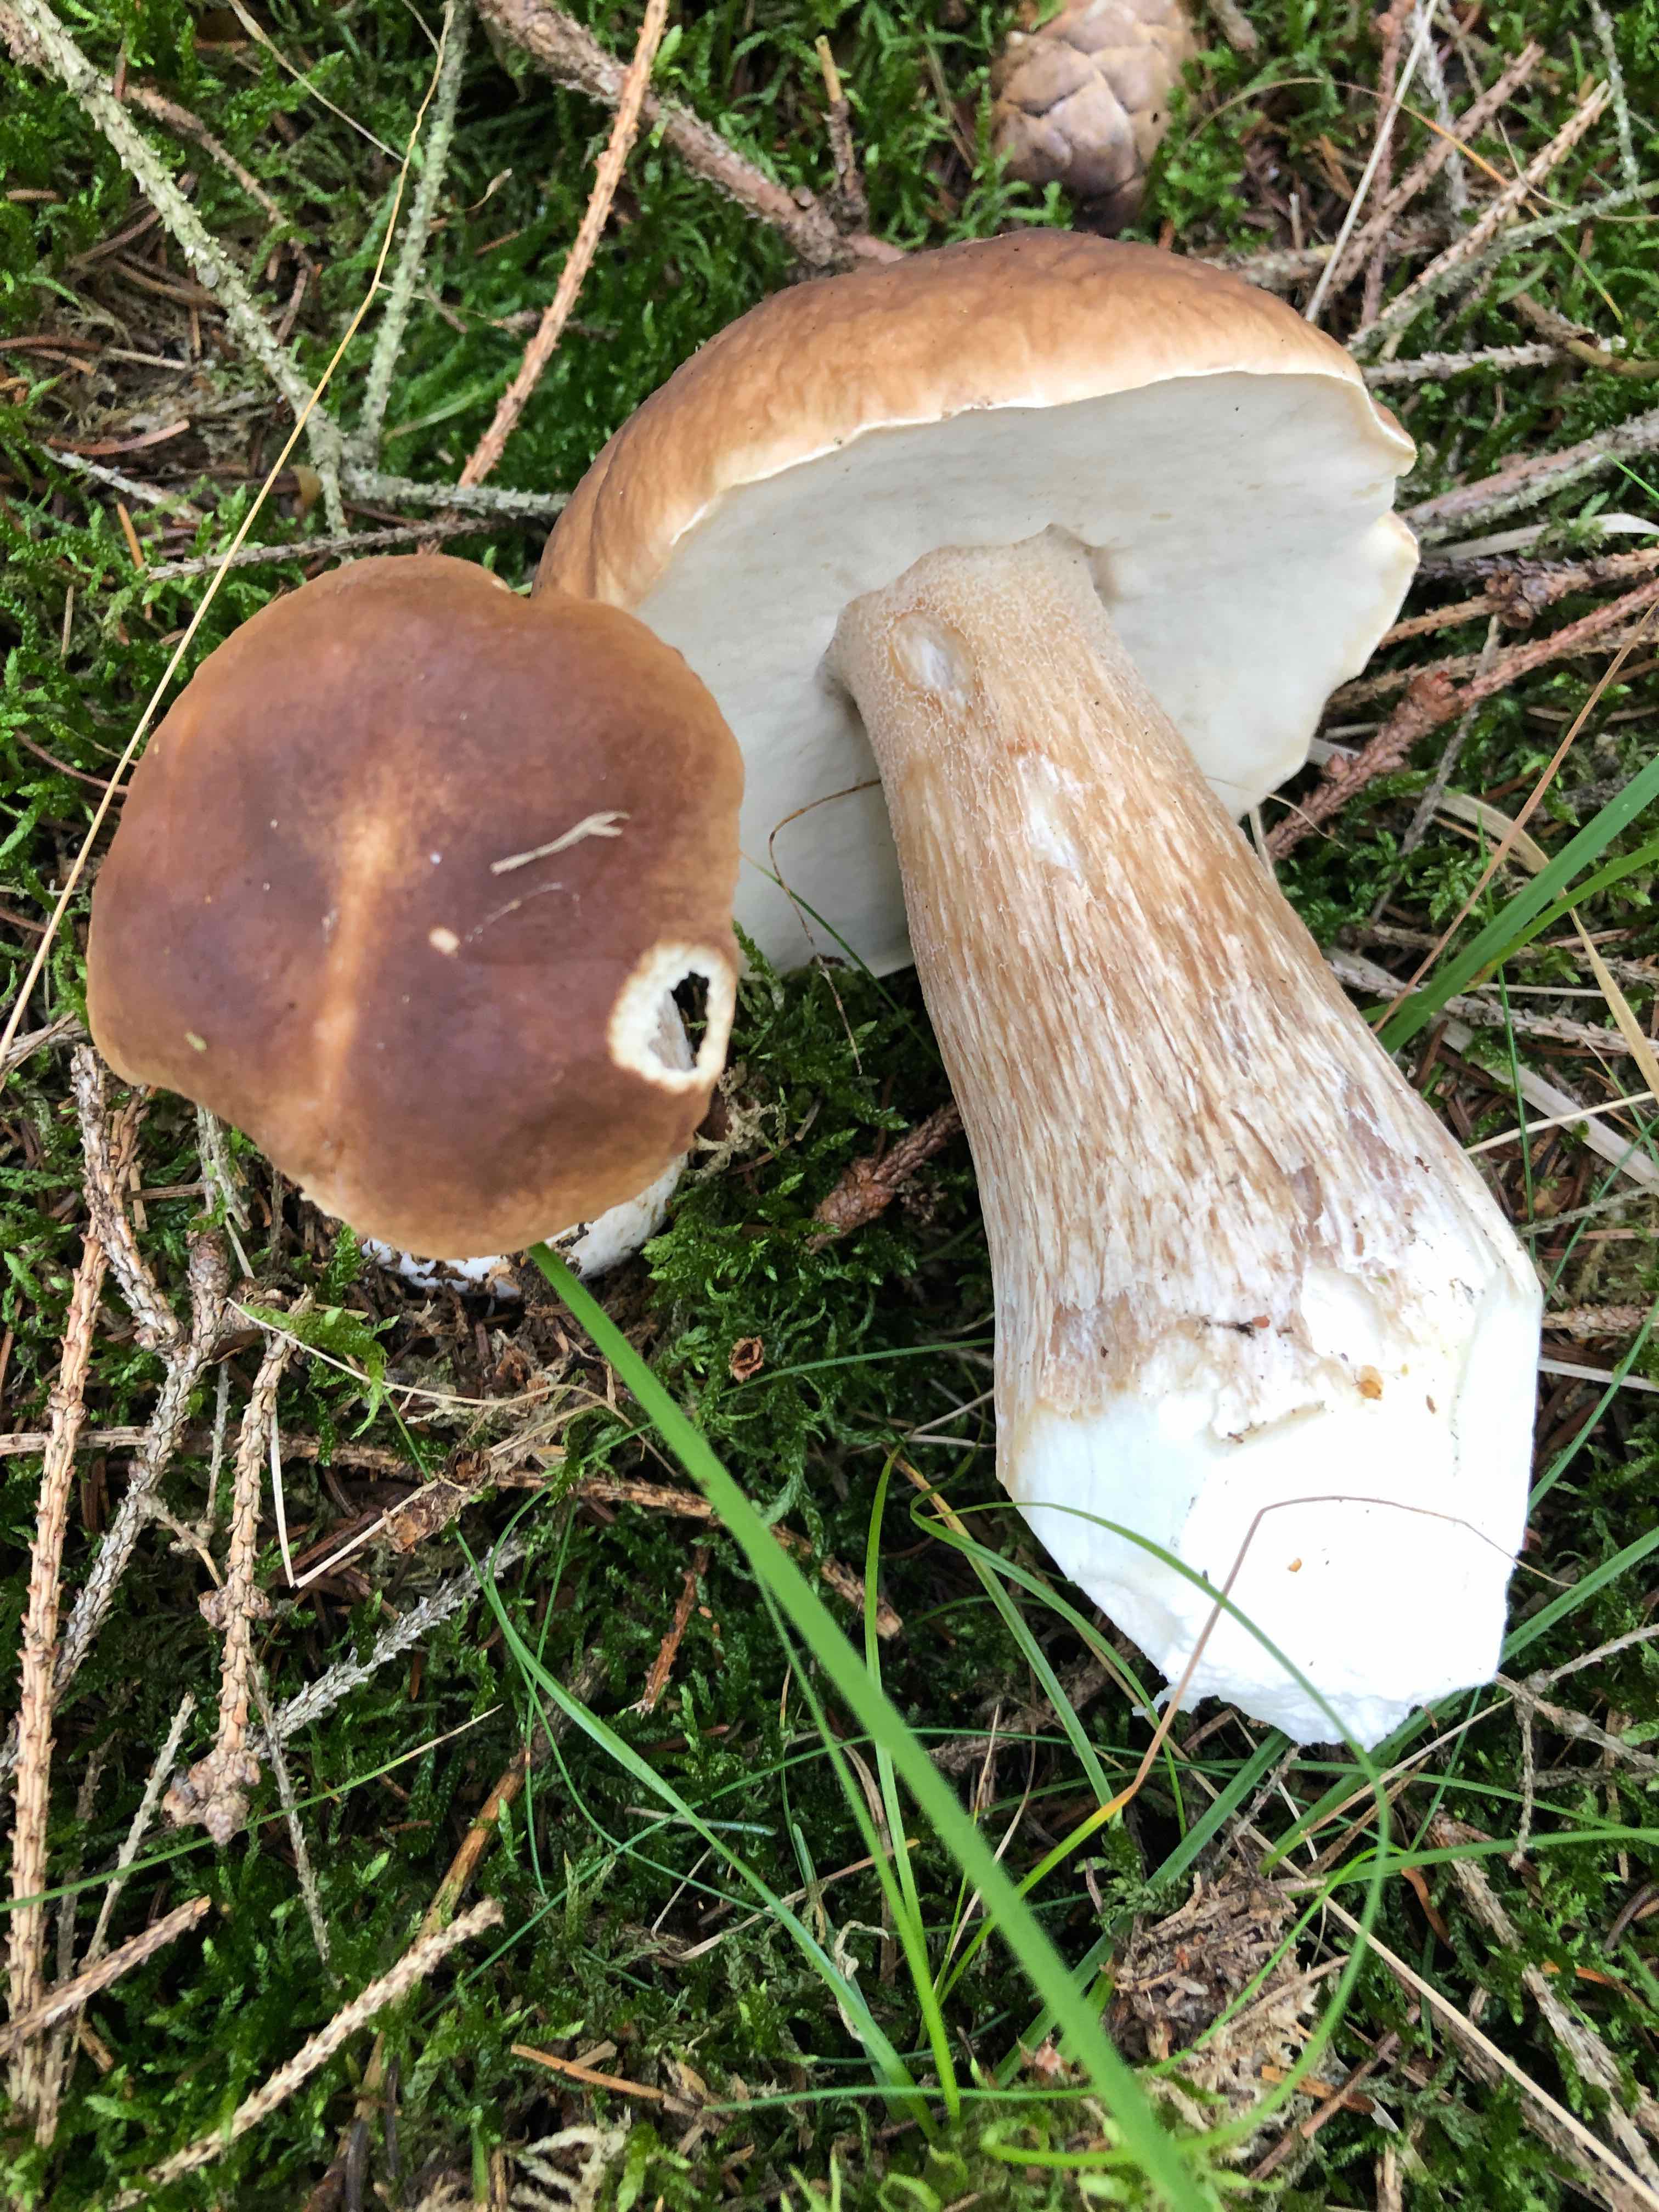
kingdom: Fungi
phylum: Basidiomycota
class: Agaricomycetes
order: Boletales
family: Boletaceae
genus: Boletus
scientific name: Boletus edulis
